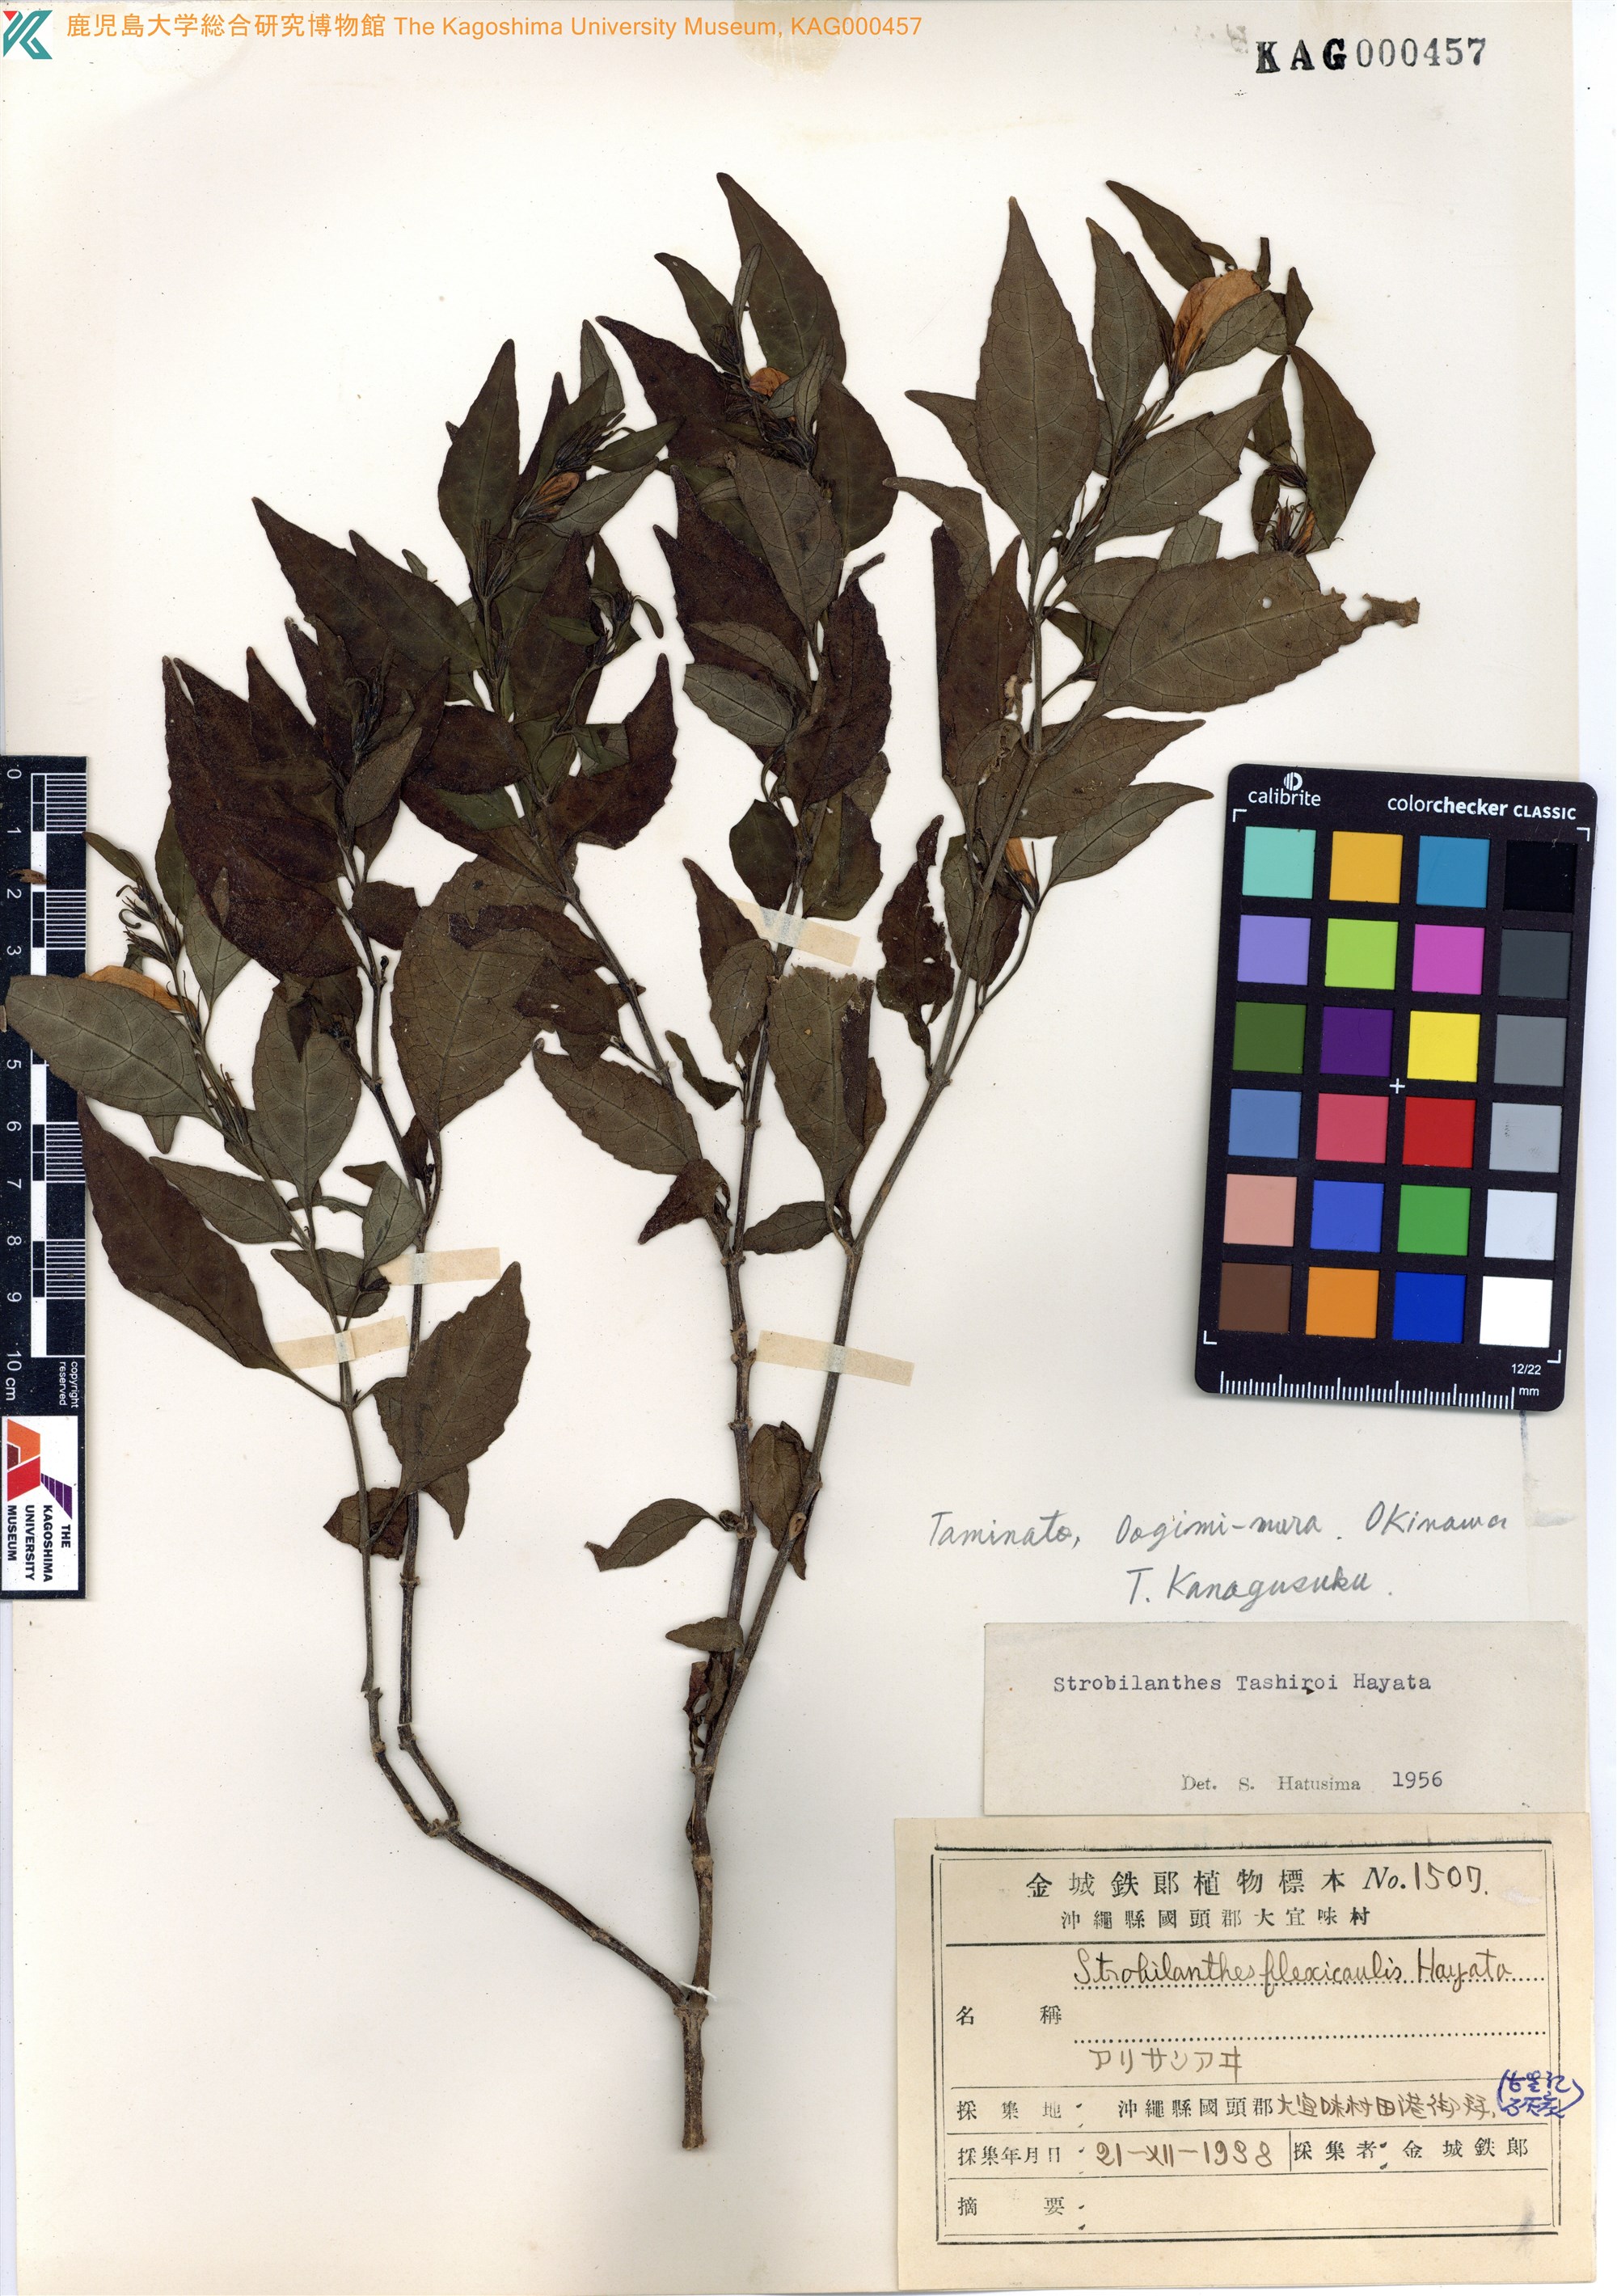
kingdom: Plantae
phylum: Tracheophyta
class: Magnoliopsida
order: Lamiales
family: Acanthaceae
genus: Strobilanthes
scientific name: Strobilanthes flexicaulis
